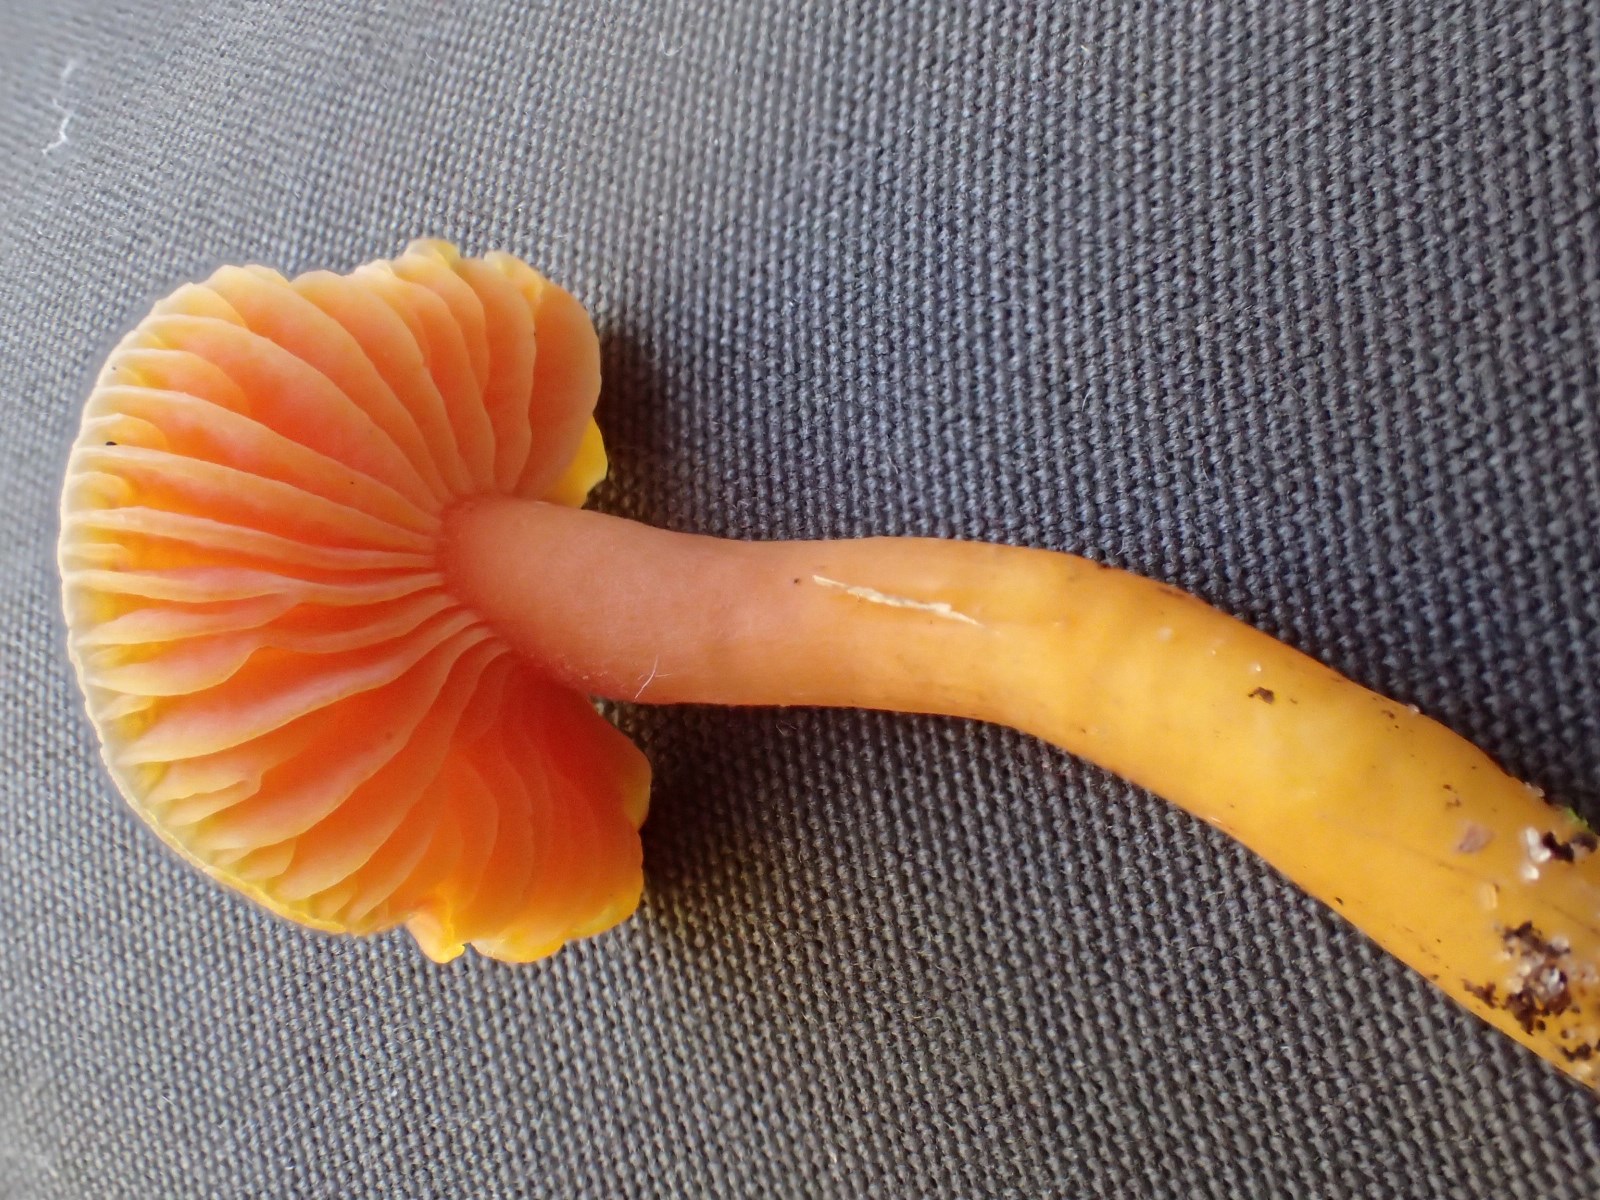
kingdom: Fungi
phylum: Basidiomycota
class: Agaricomycetes
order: Agaricales
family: Hygrophoraceae
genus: Hygrocybe
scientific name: Hygrocybe miniata
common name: mønje-vokshat
